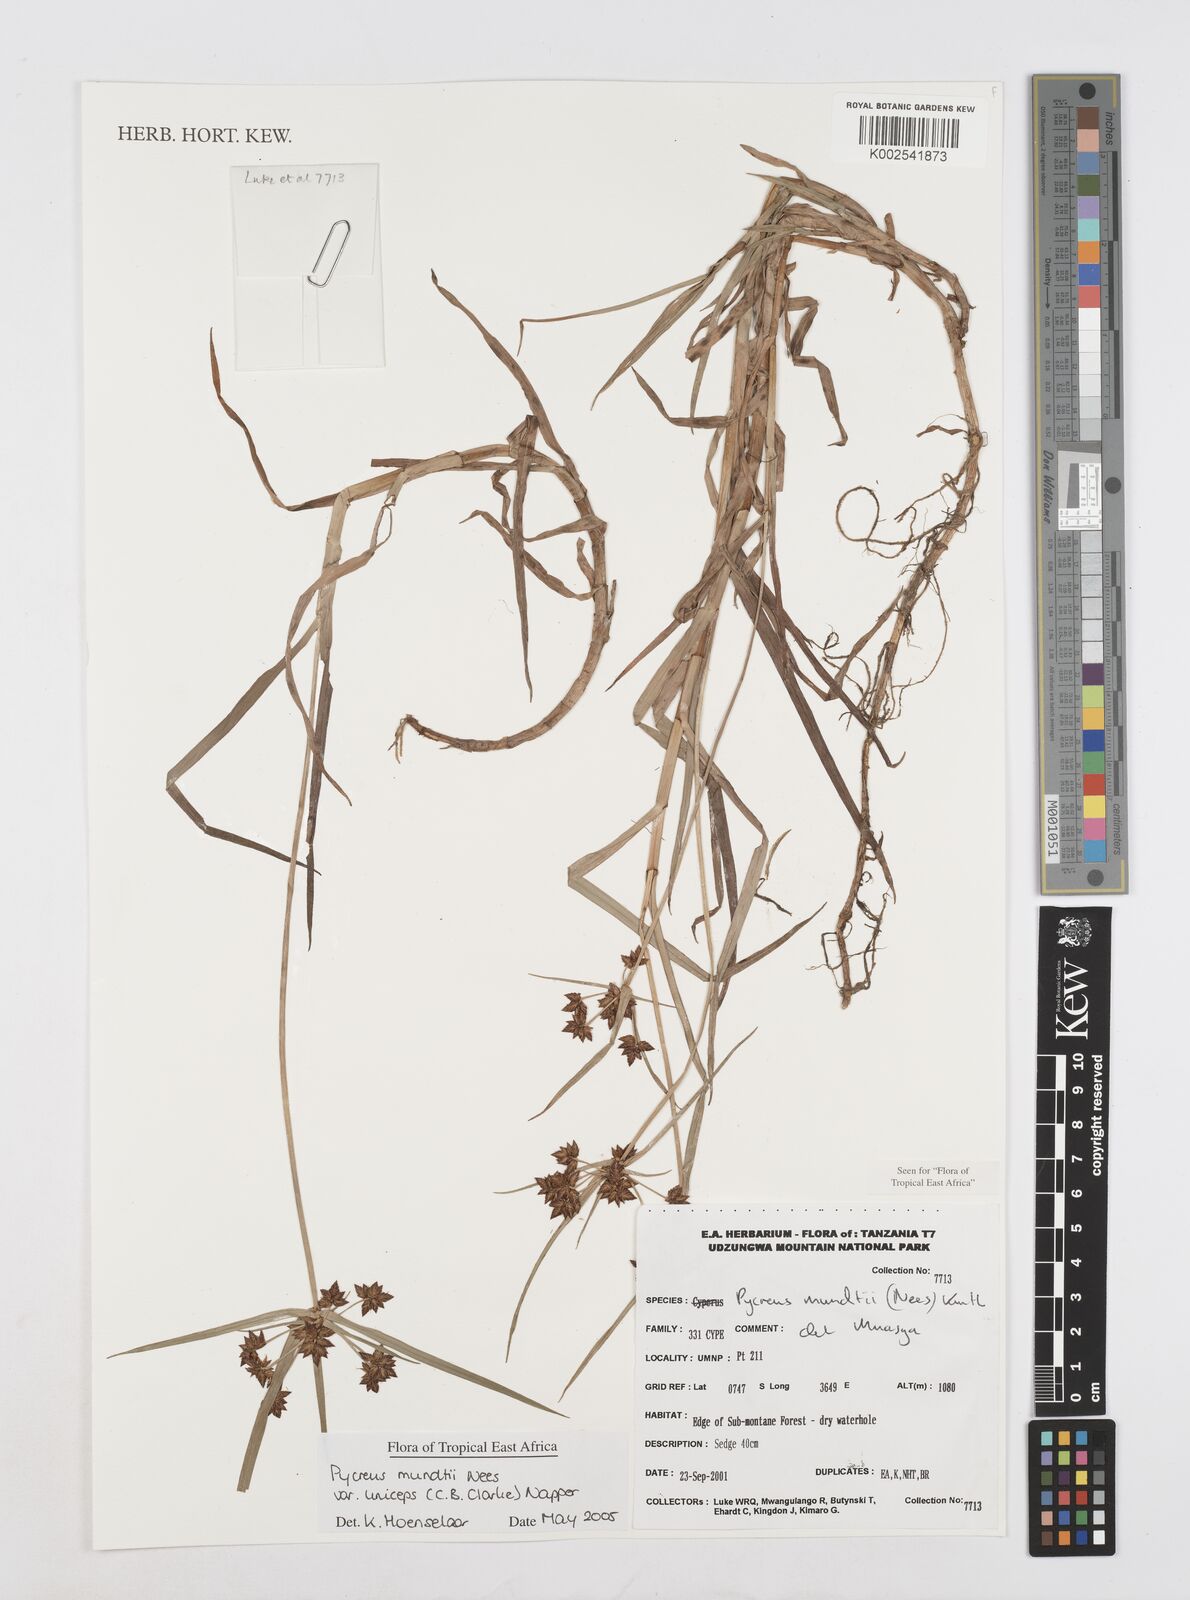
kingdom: Plantae
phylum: Tracheophyta
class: Liliopsida
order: Poales
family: Cyperaceae
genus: Cyperus
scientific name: Cyperus mundii
